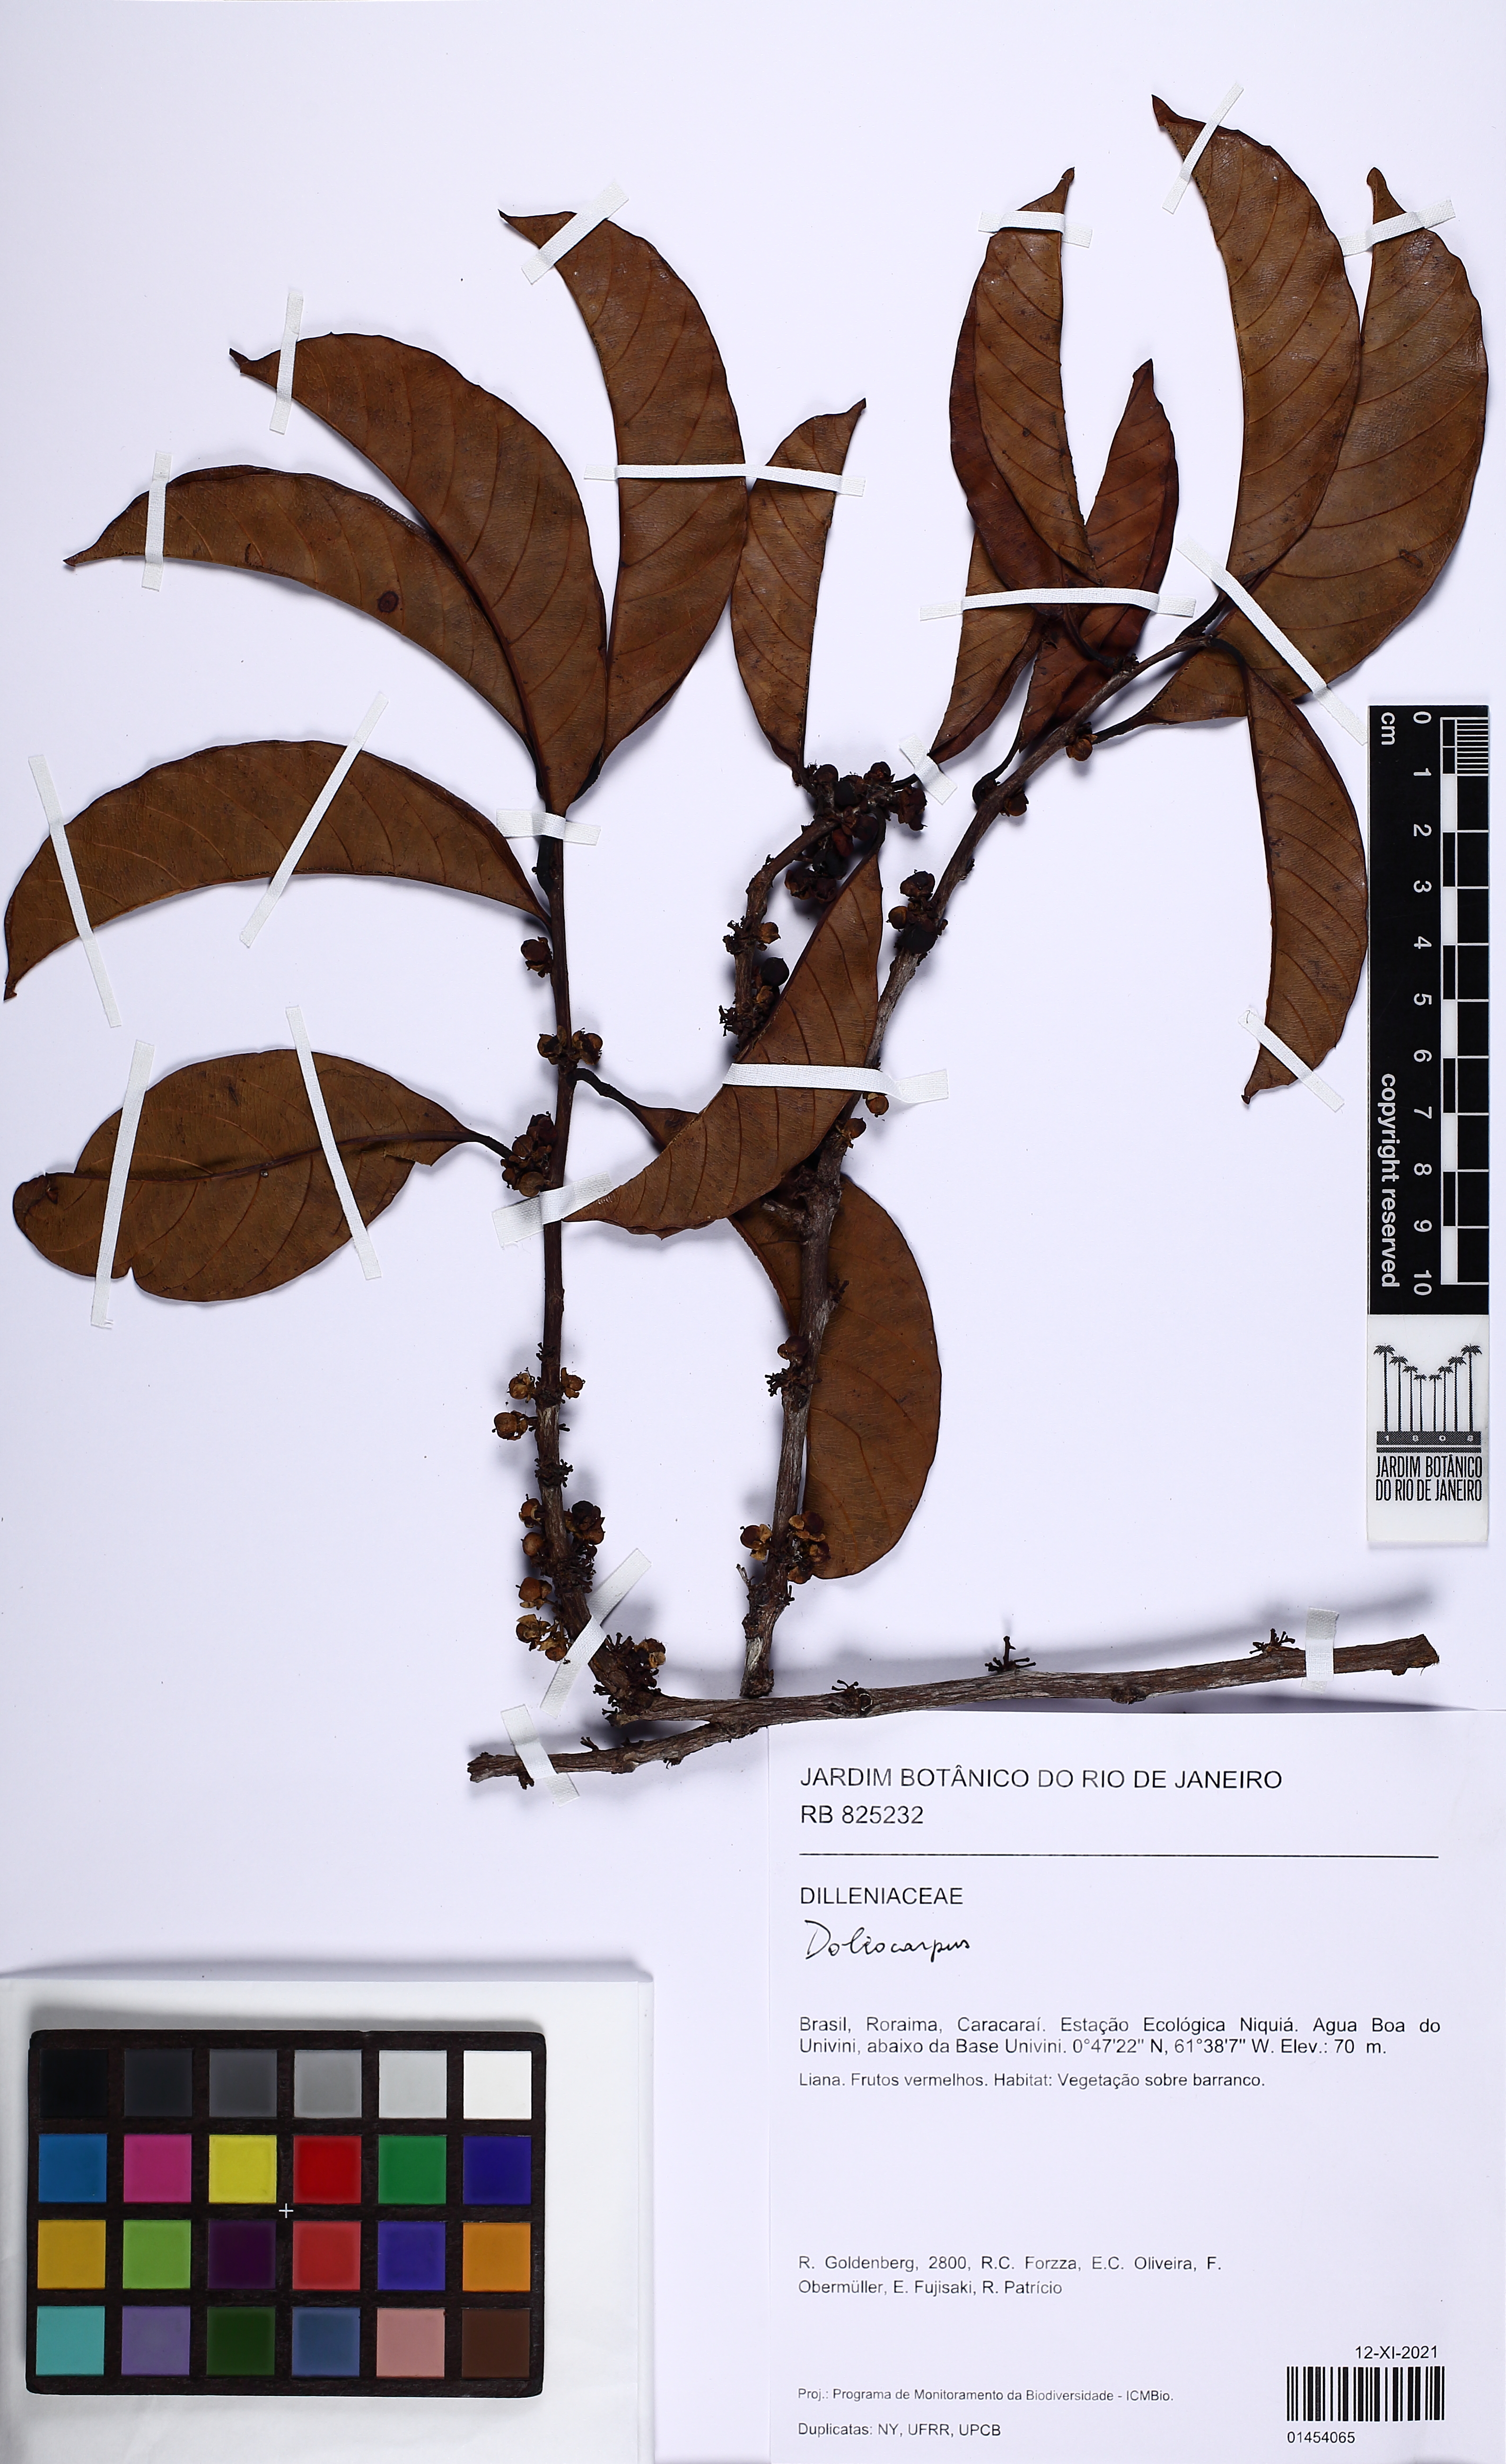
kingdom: Plantae
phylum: Tracheophyta
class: Magnoliopsida
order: Dilleniales
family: Dilleniaceae
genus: Doliocarpus
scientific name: Doliocarpus spraguei
